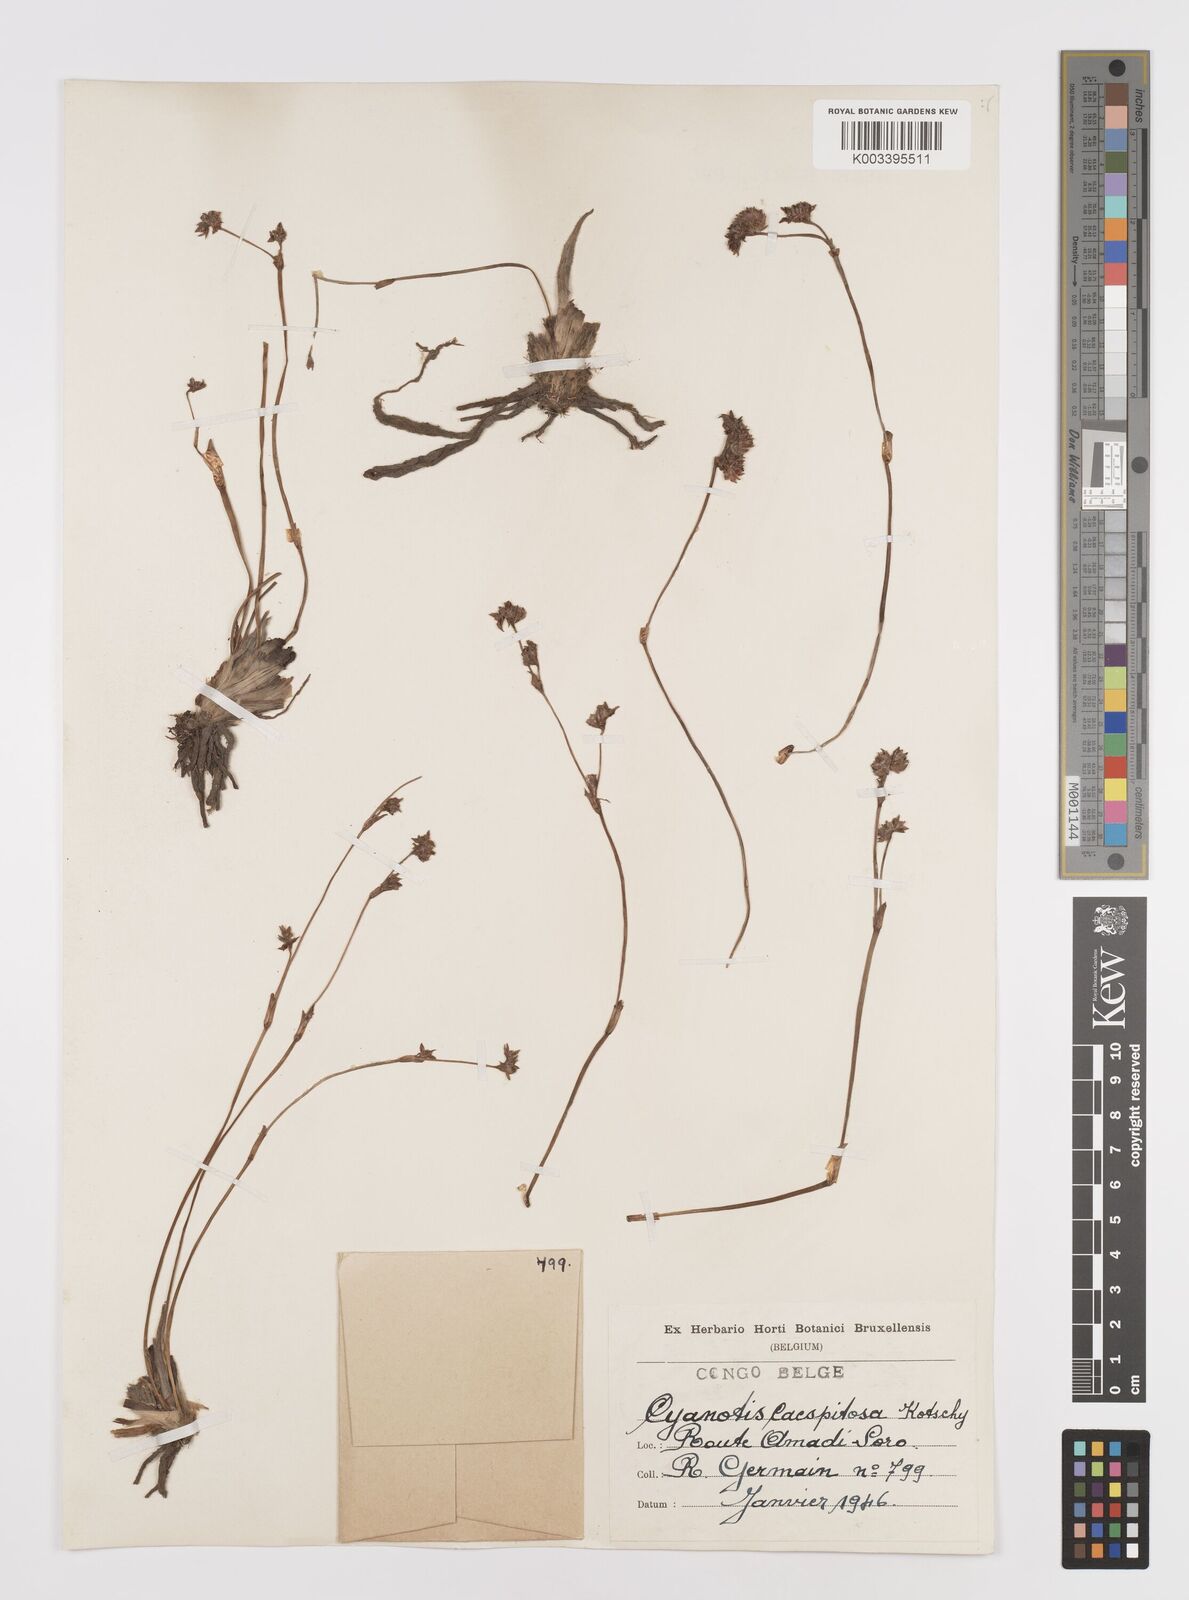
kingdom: Plantae
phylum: Tracheophyta
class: Liliopsida
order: Commelinales
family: Commelinaceae
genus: Cyanotis
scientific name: Cyanotis caespitosa
